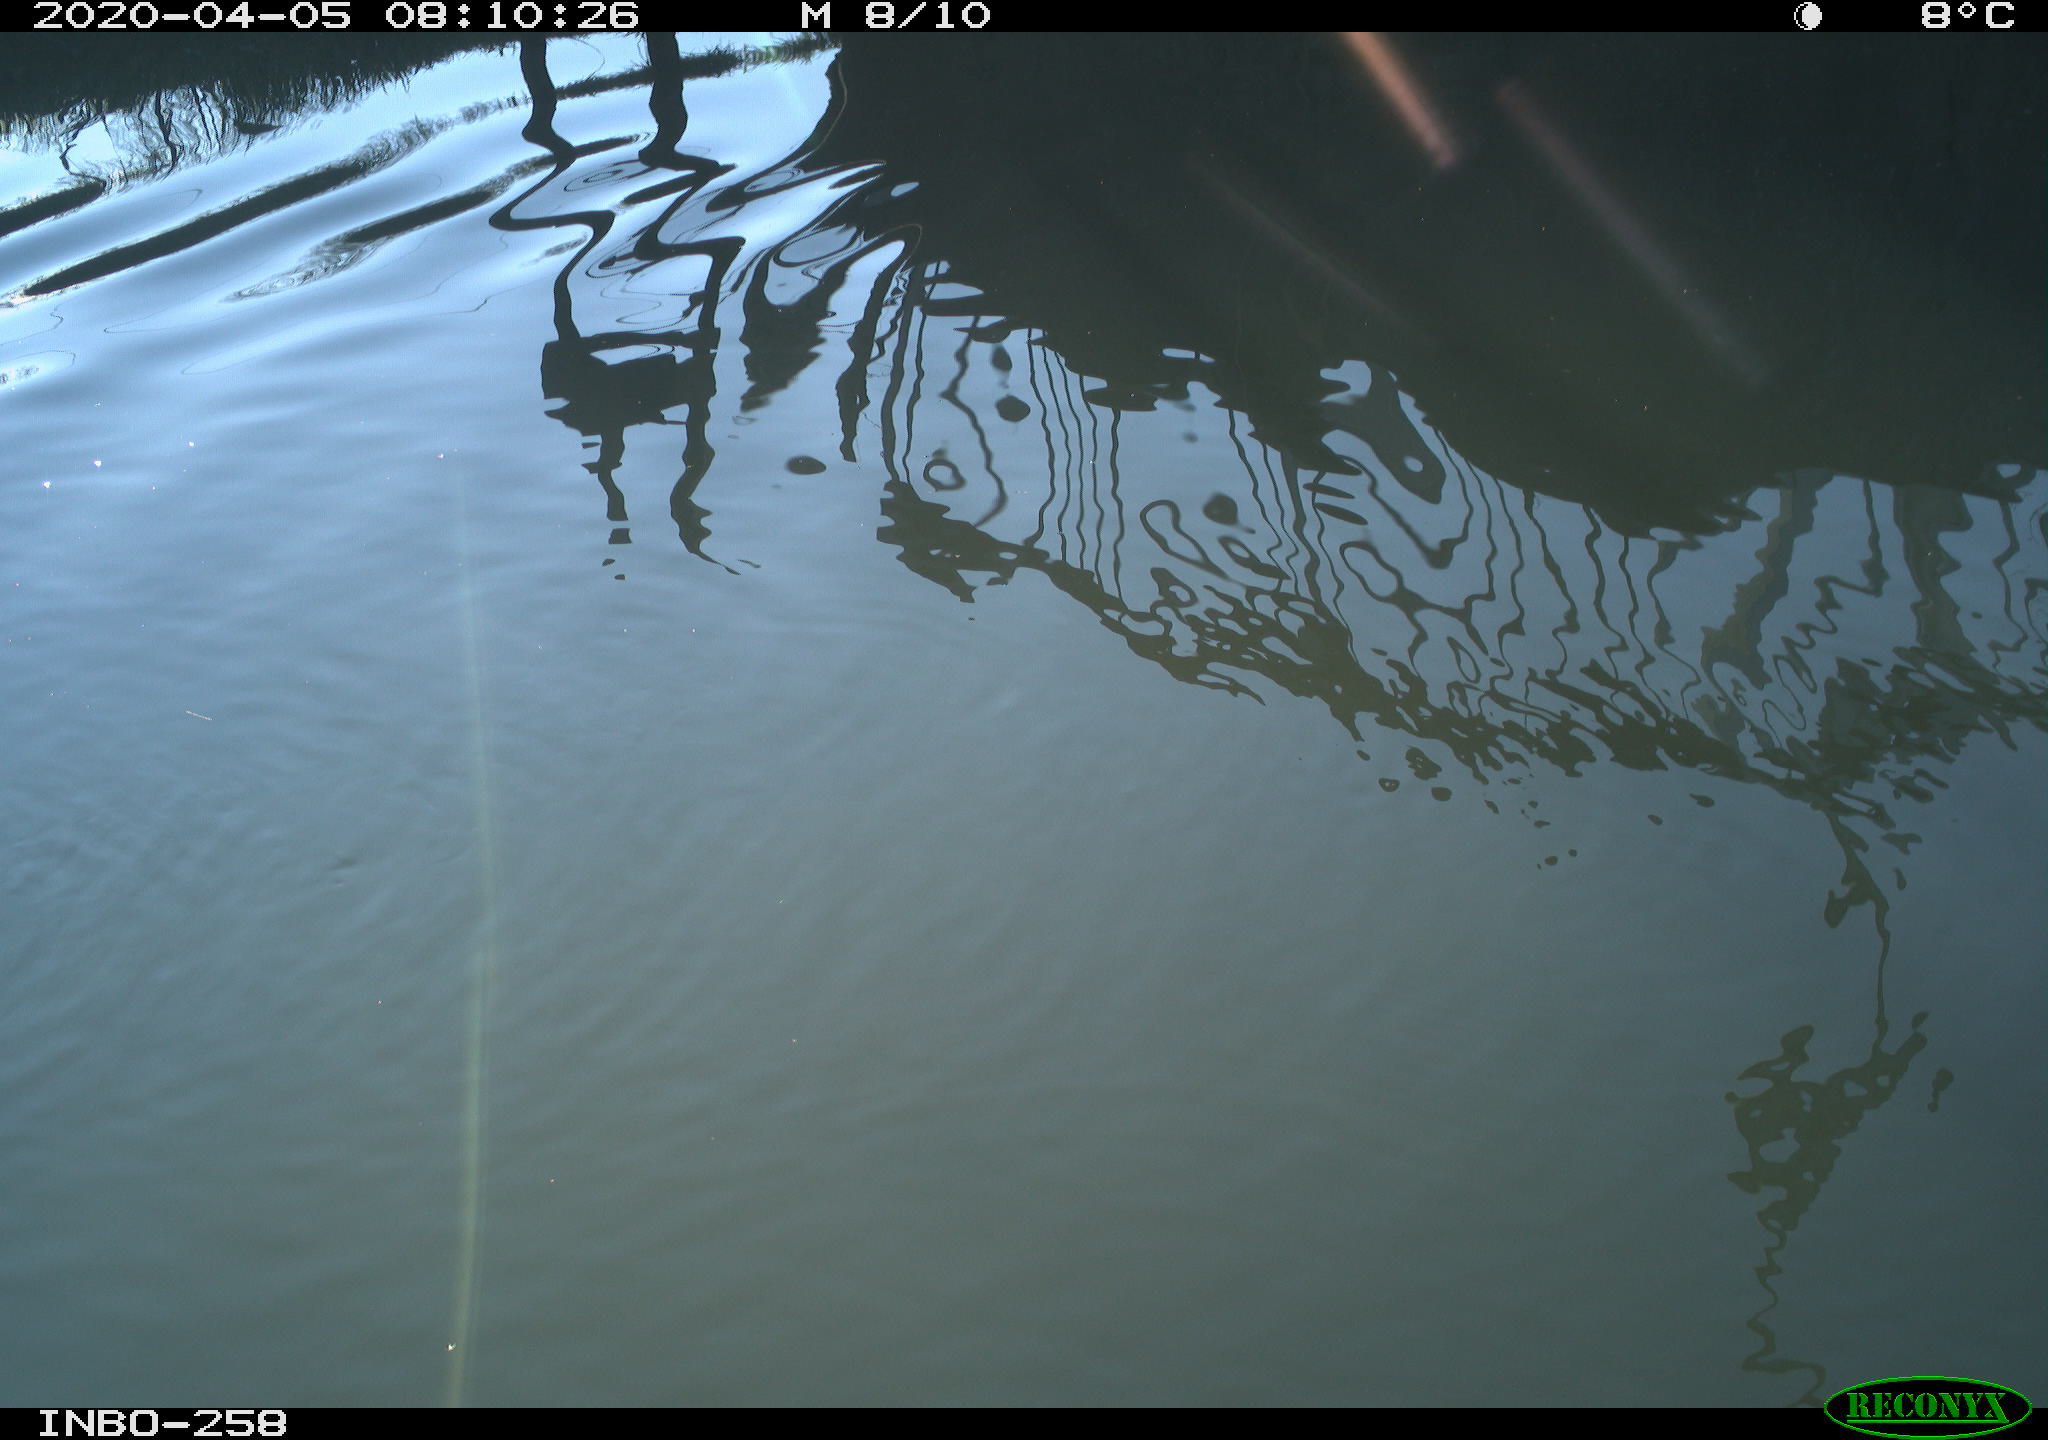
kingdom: Animalia
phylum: Chordata
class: Aves
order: Anseriformes
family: Anatidae
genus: Anas
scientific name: Anas platyrhynchos
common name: Mallard
